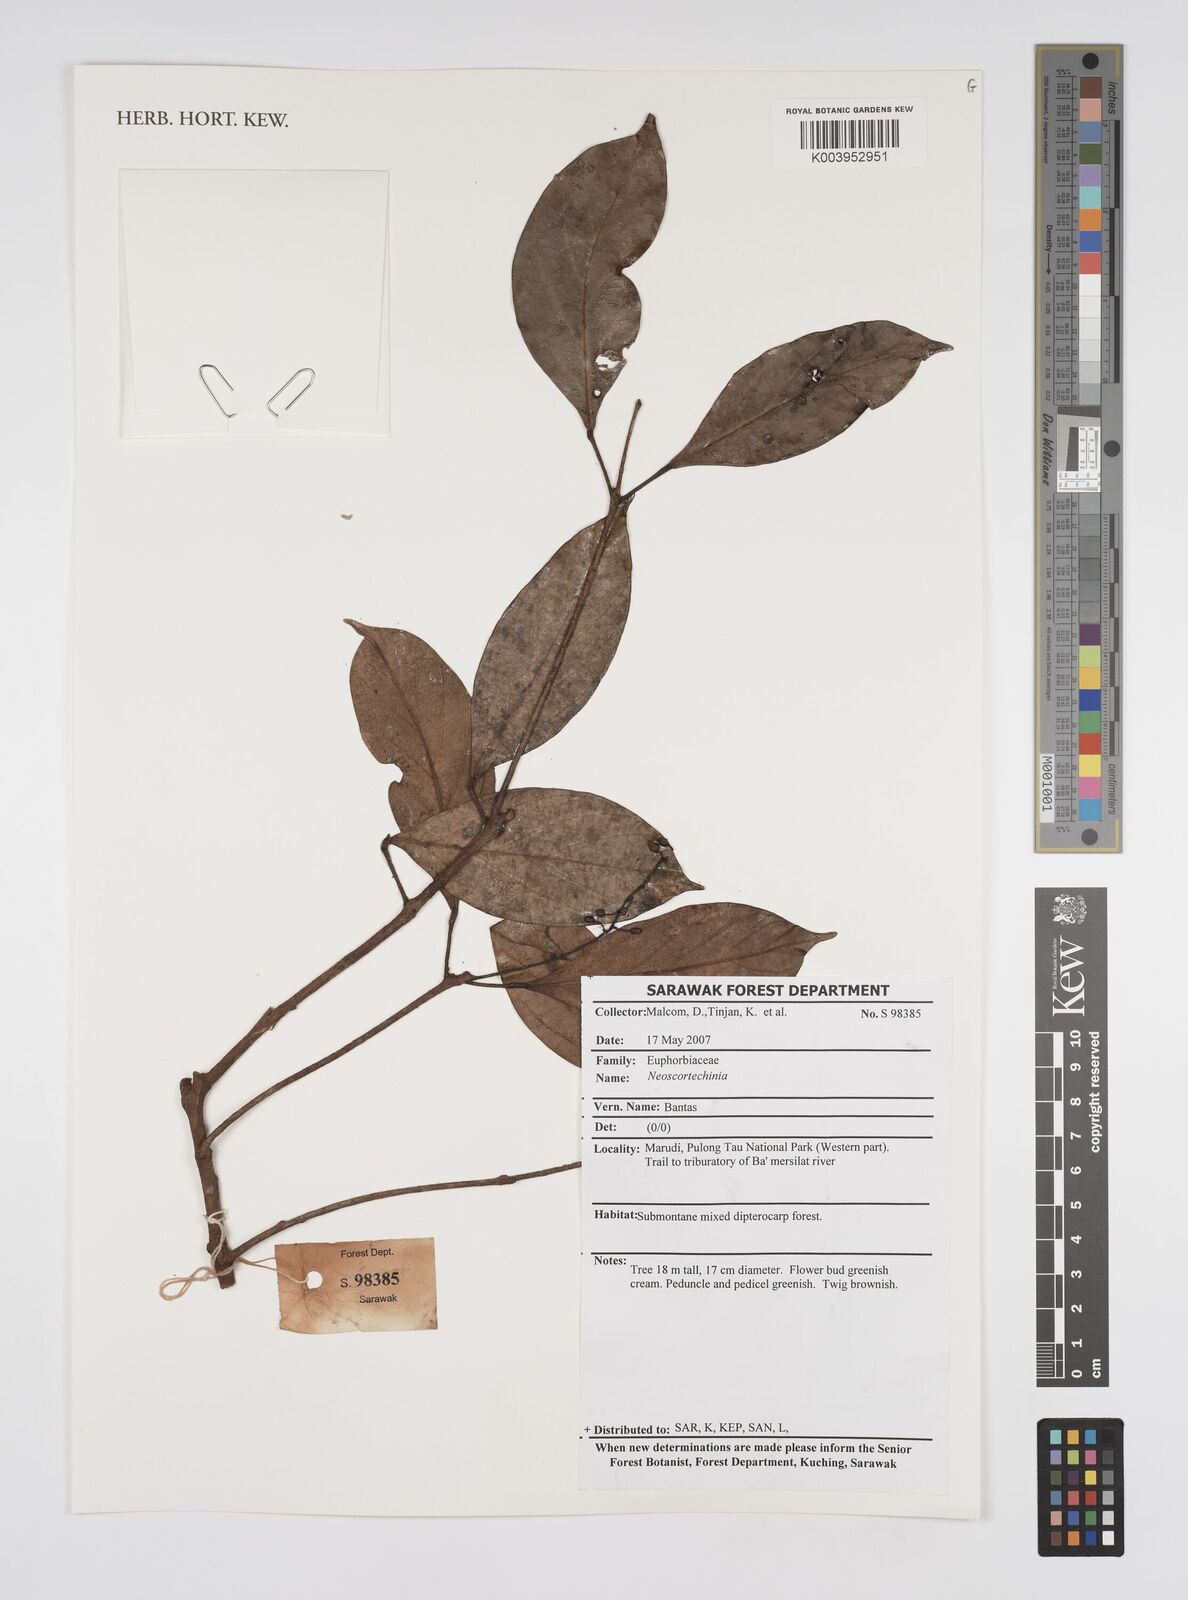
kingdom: Plantae
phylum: Tracheophyta
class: Magnoliopsida
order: Malpighiales
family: Euphorbiaceae
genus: Neoscortechinia
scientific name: Neoscortechinia
